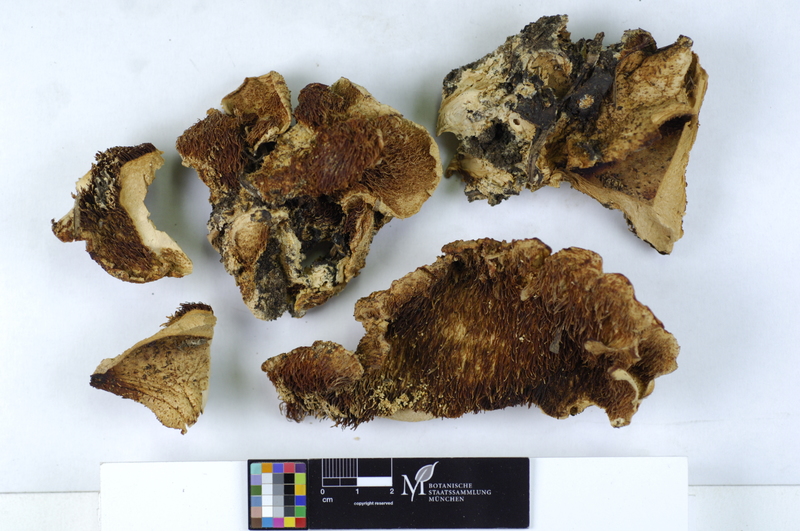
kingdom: Fungi
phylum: Basidiomycota
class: Agaricomycetes
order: Russulales
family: Hericiaceae
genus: Hericium
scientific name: Hericium cirrhatum
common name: Tiered tooth
